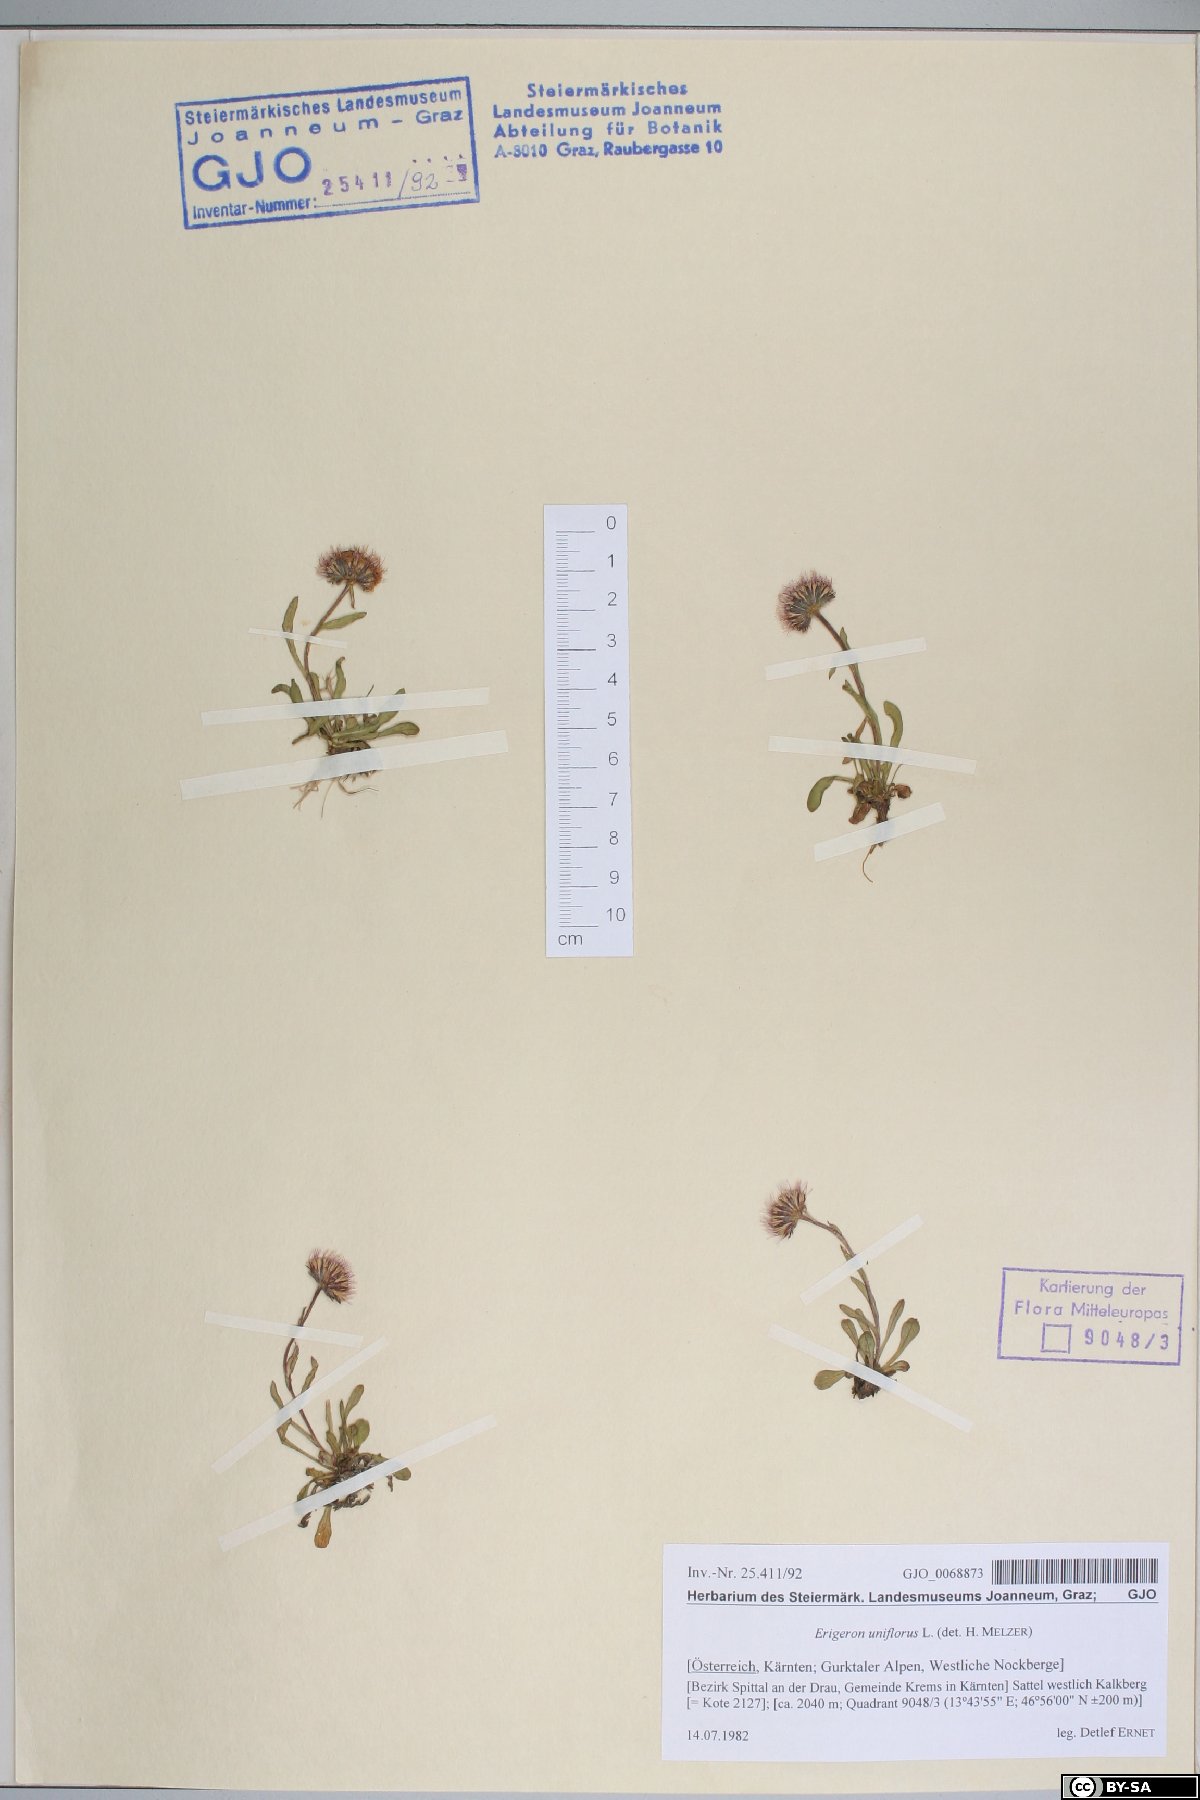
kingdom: Plantae
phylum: Tracheophyta
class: Magnoliopsida
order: Asterales
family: Asteraceae
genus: Erigeron
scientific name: Erigeron uniflorus
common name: Northern daisy
